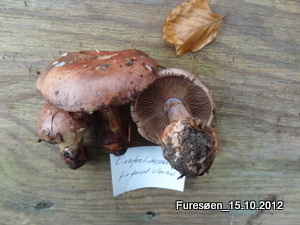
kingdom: Fungi
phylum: Basidiomycota
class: Agaricomycetes
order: Agaricales
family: Cortinariaceae
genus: Calonarius
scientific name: Calonarius rufo-olivaceus
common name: firefarvet slørhat
